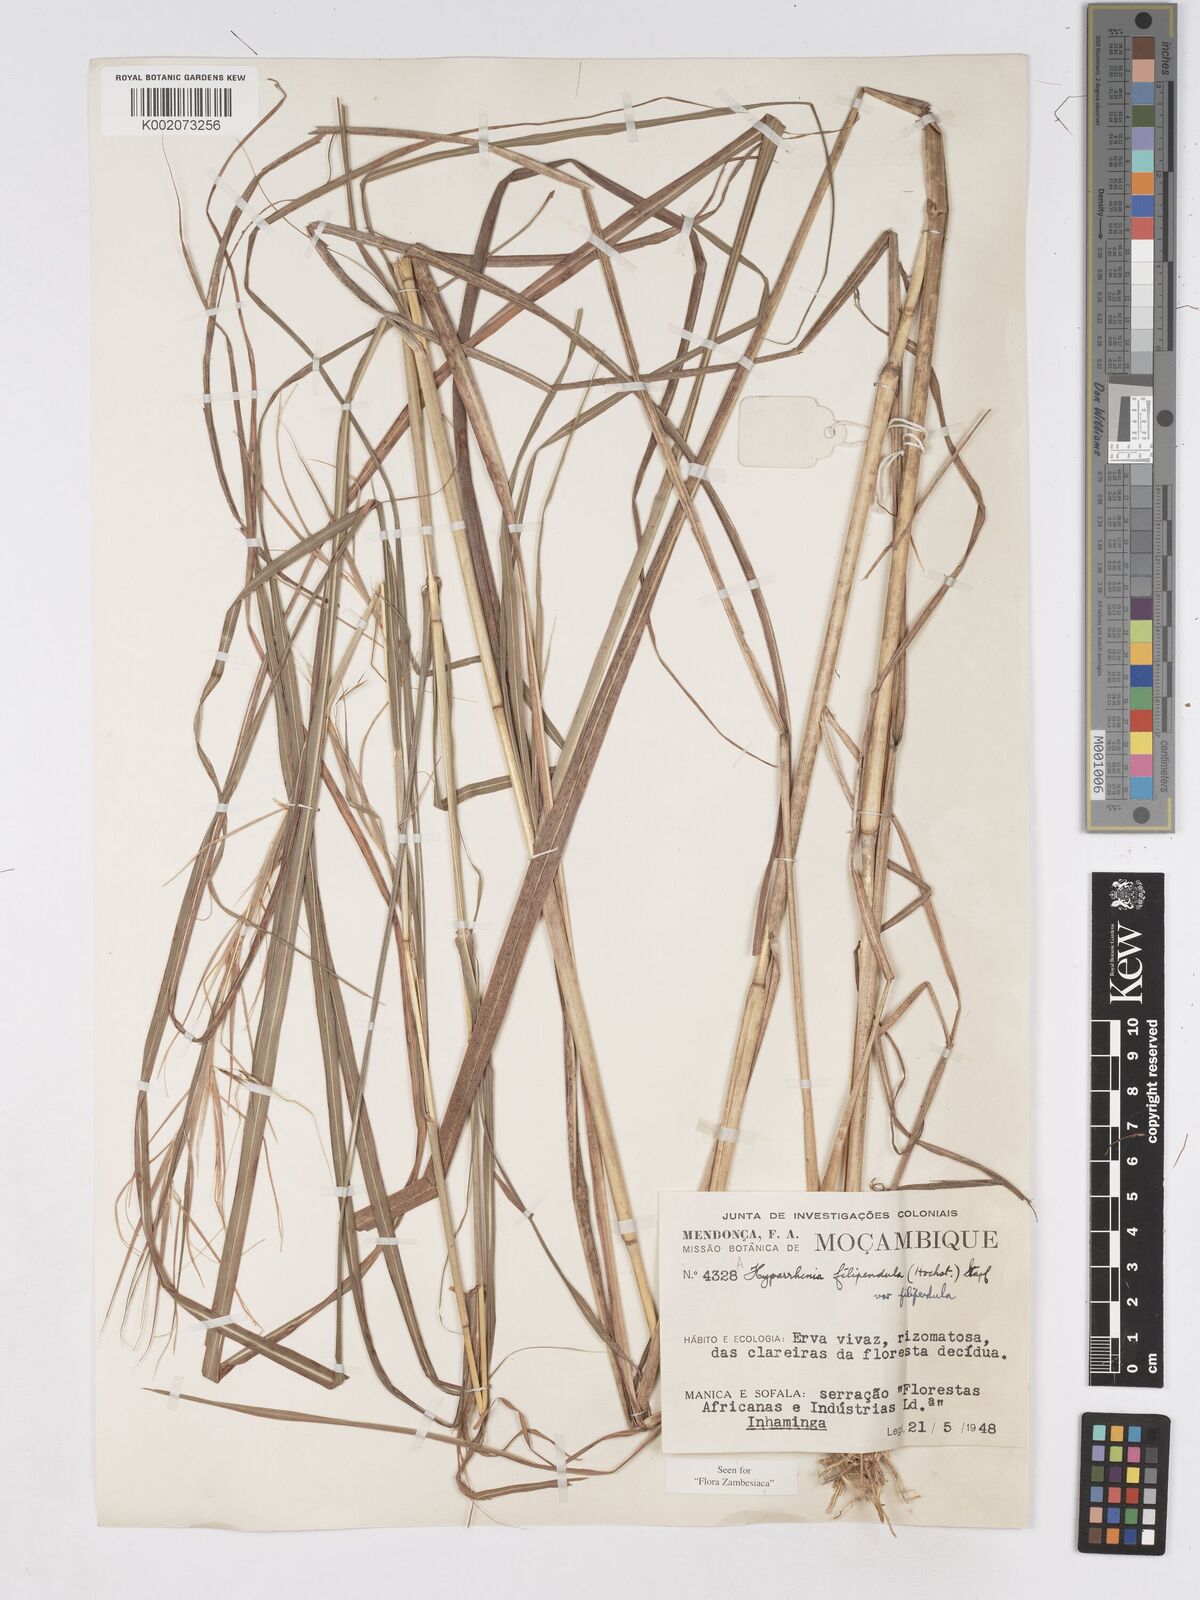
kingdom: Plantae
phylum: Tracheophyta
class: Liliopsida
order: Poales
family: Poaceae
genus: Hyparrhenia
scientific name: Hyparrhenia filipendula
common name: Tambookie grass
